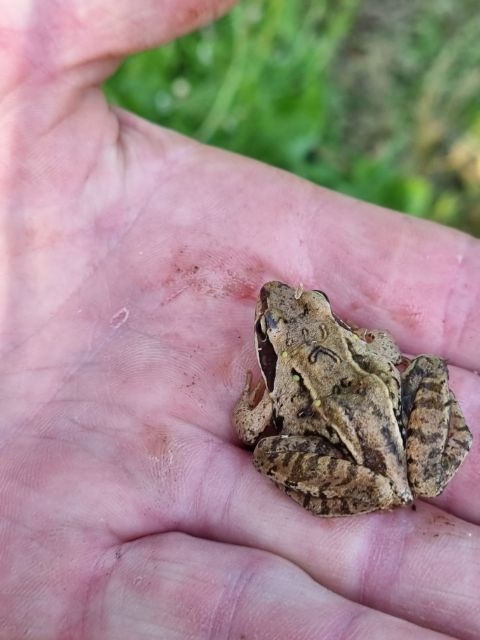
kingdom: Animalia
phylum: Chordata
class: Amphibia
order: Anura
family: Ranidae
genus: Rana
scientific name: Rana temporaria
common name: Butsnudet frø
